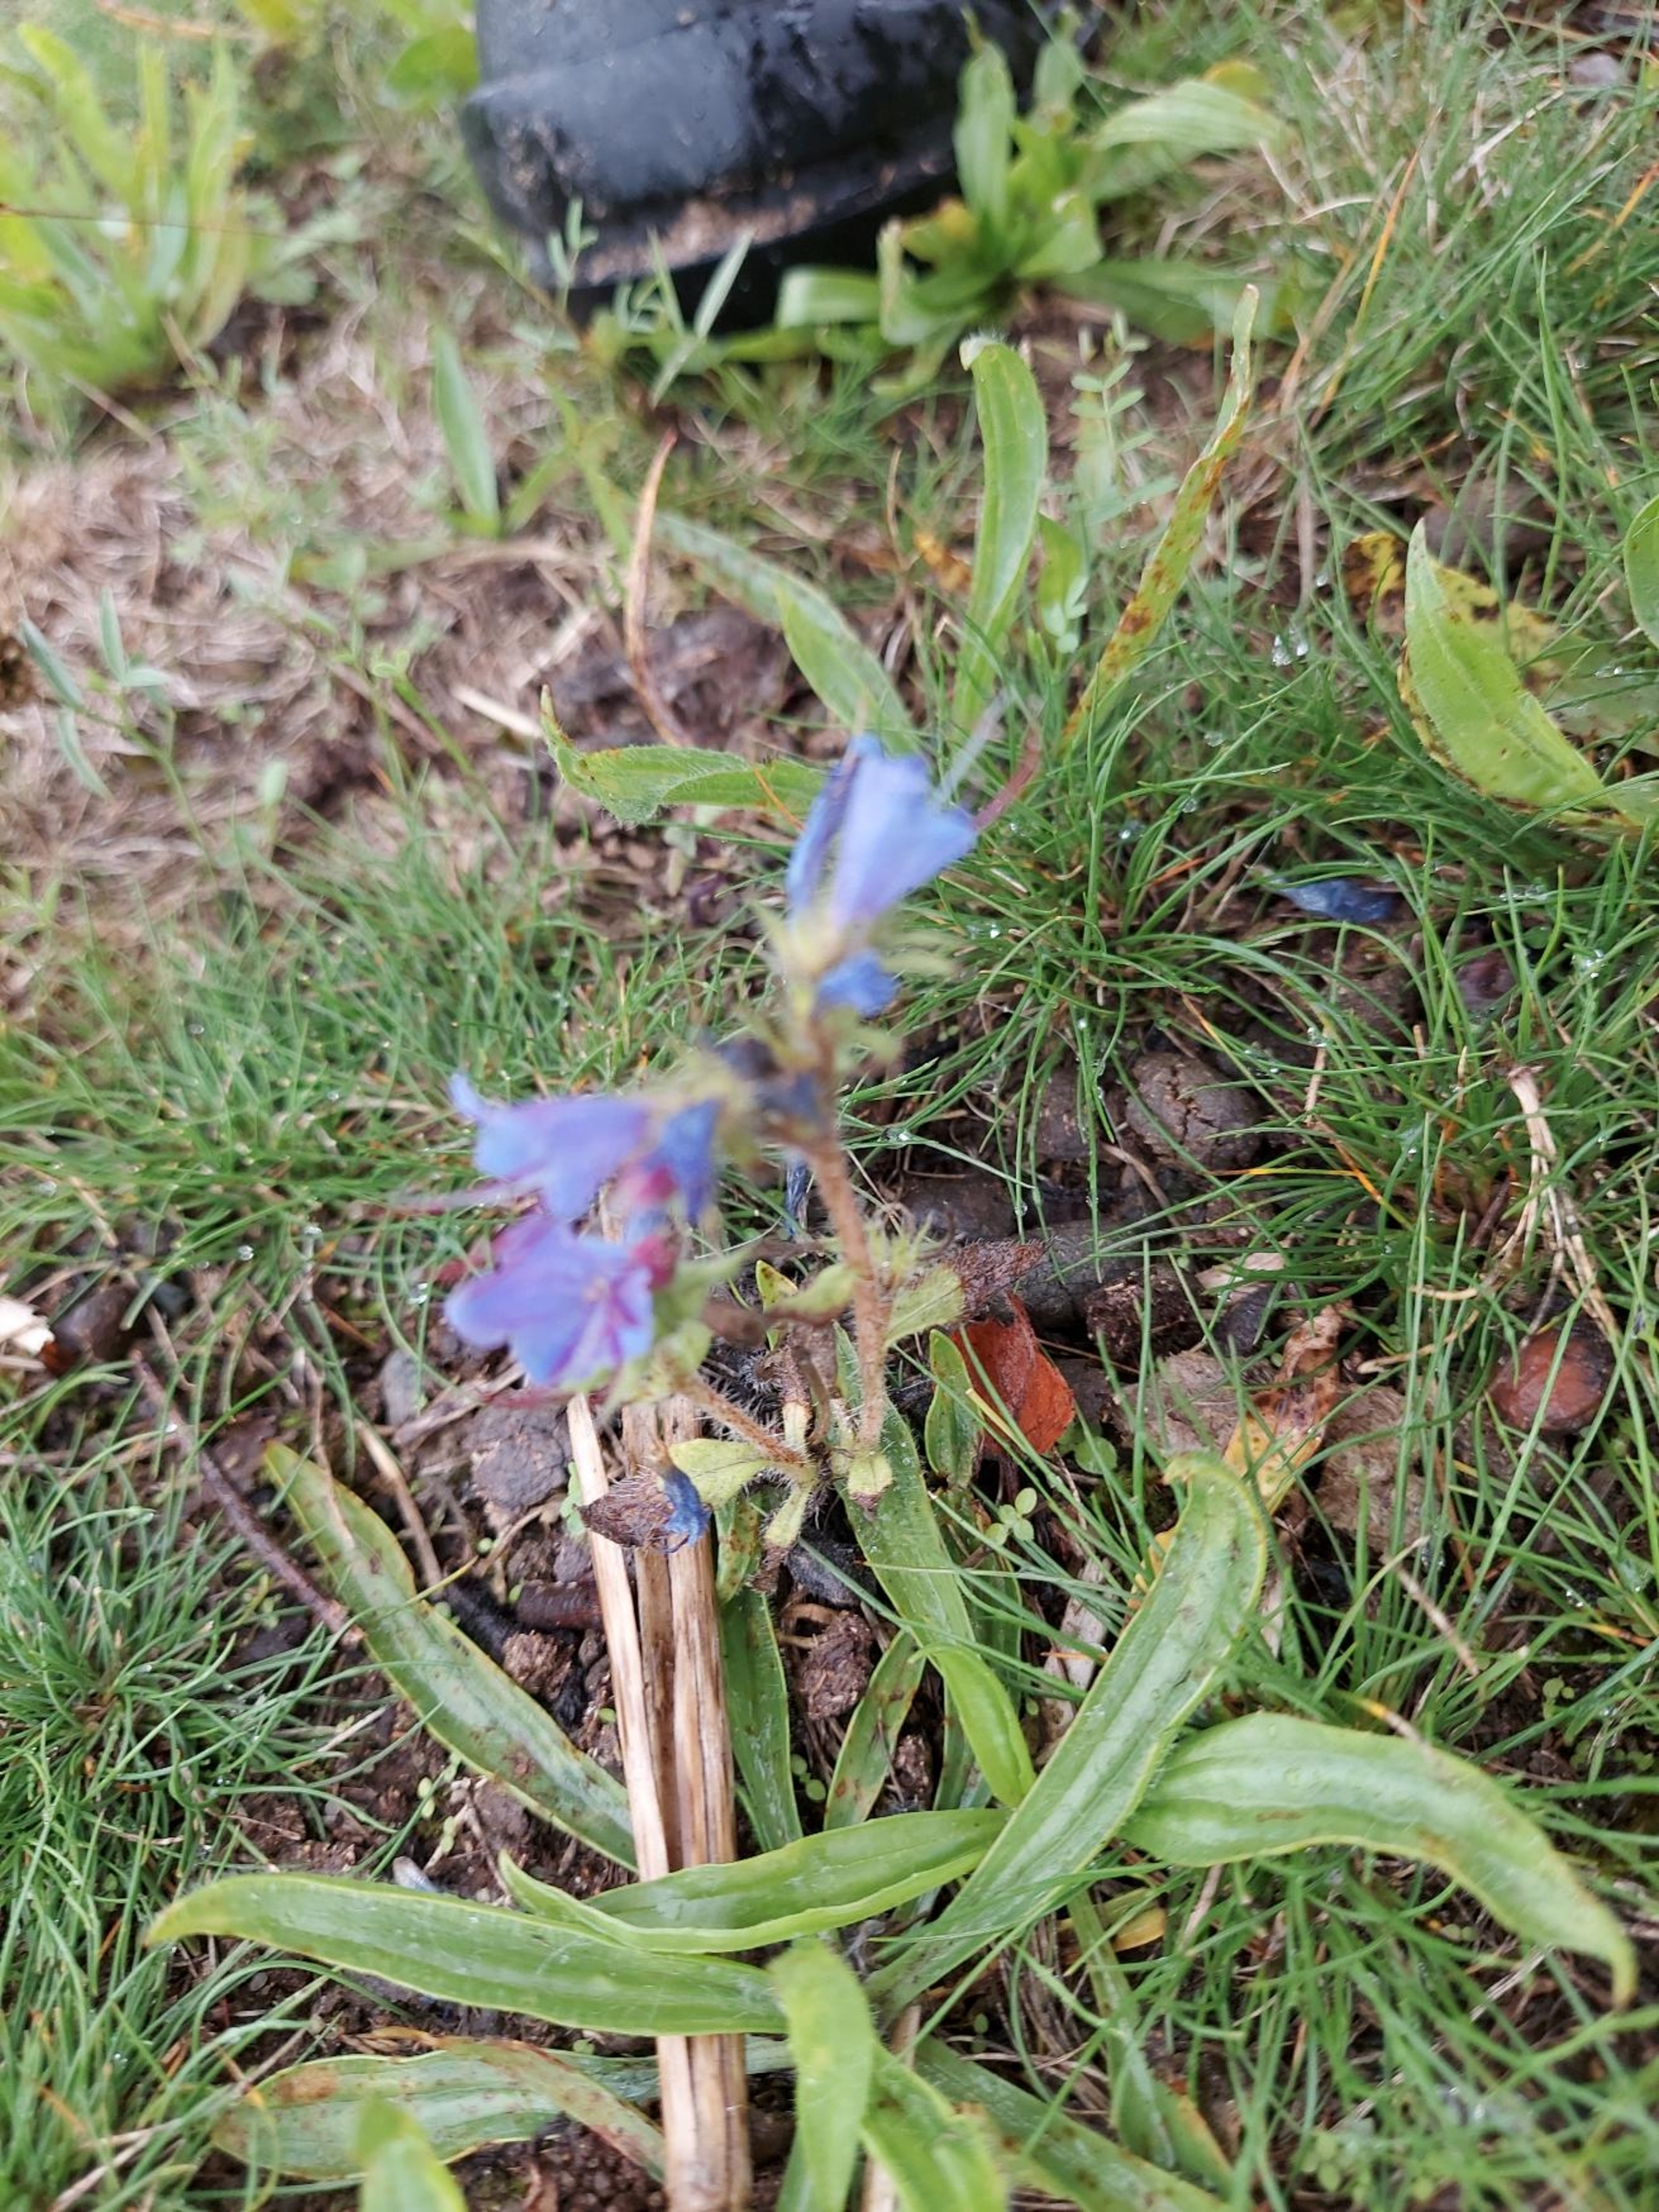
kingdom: Plantae
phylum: Tracheophyta
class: Magnoliopsida
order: Boraginales
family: Boraginaceae
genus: Echium
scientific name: Echium vulgare
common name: Slangehoved
